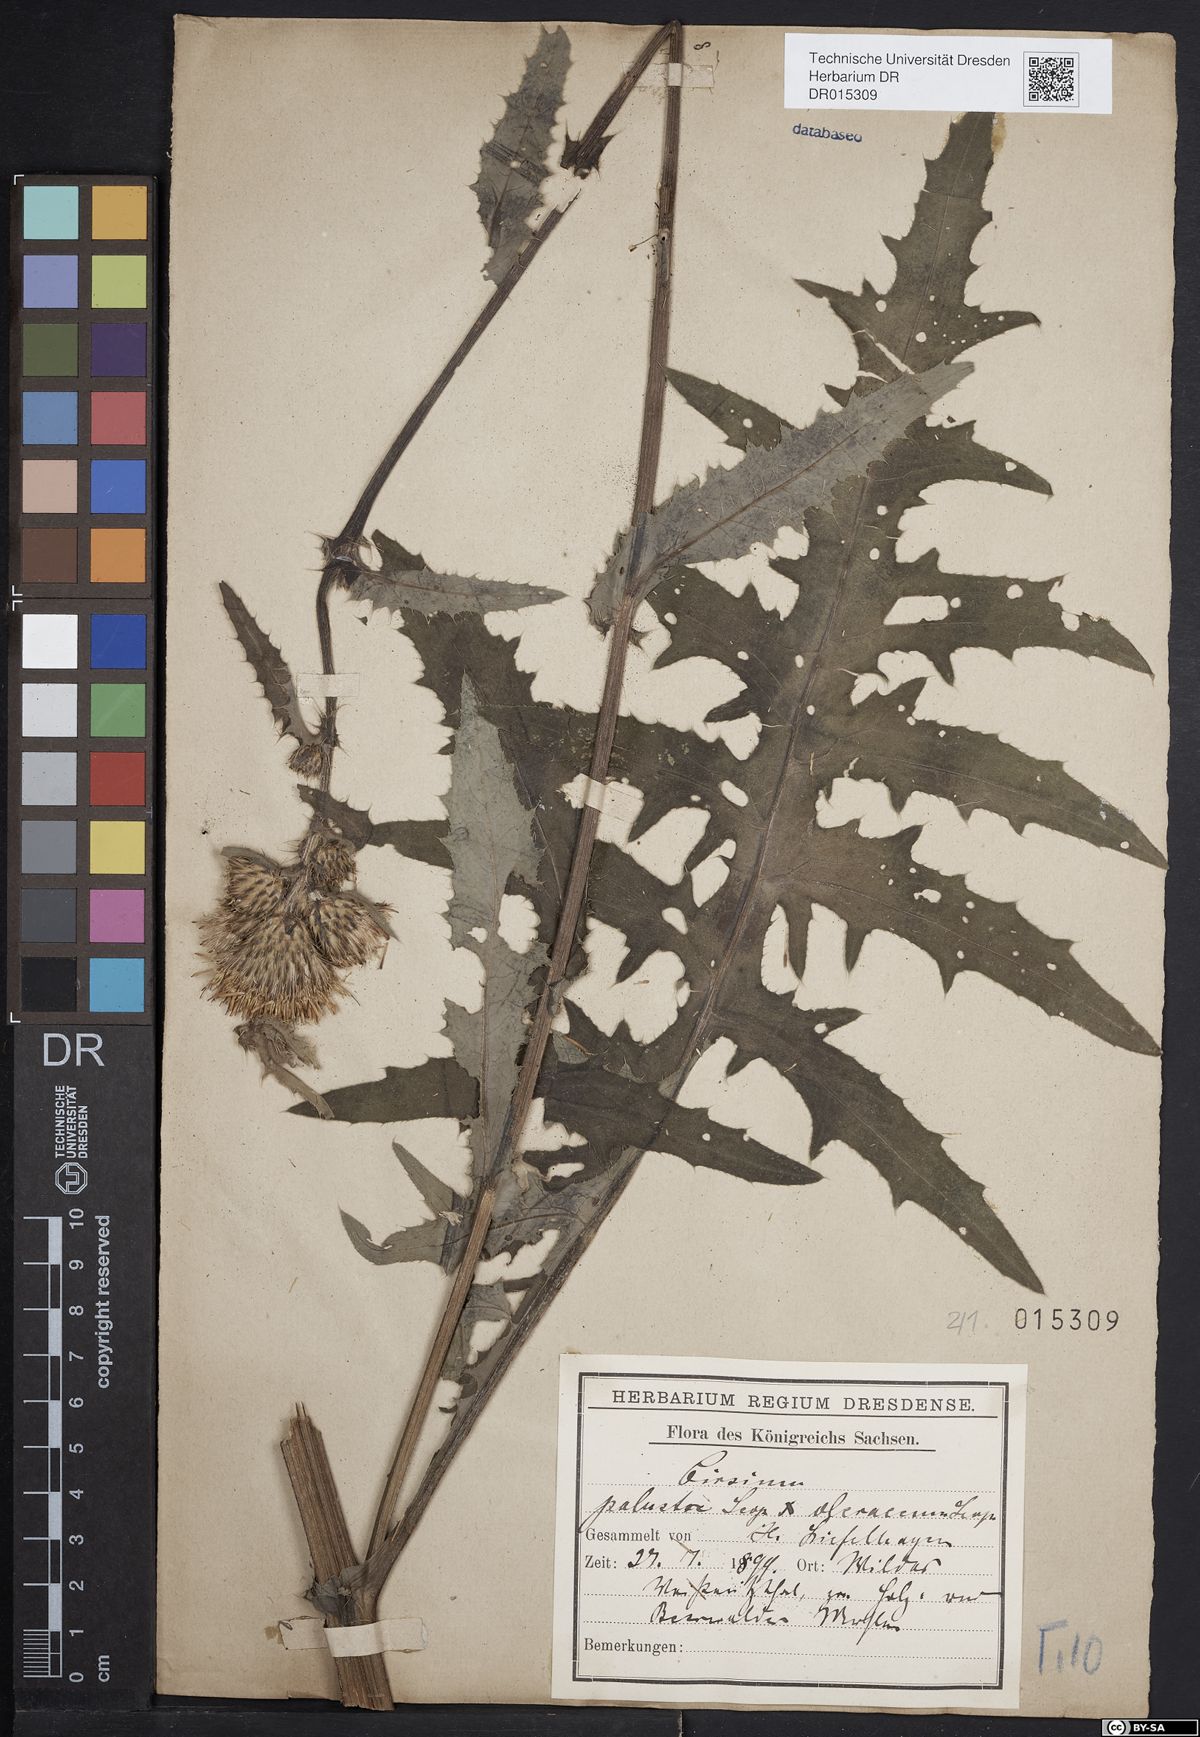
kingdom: Plantae
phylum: Tracheophyta
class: Magnoliopsida
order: Asterales
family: Asteraceae
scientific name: Asteraceae
